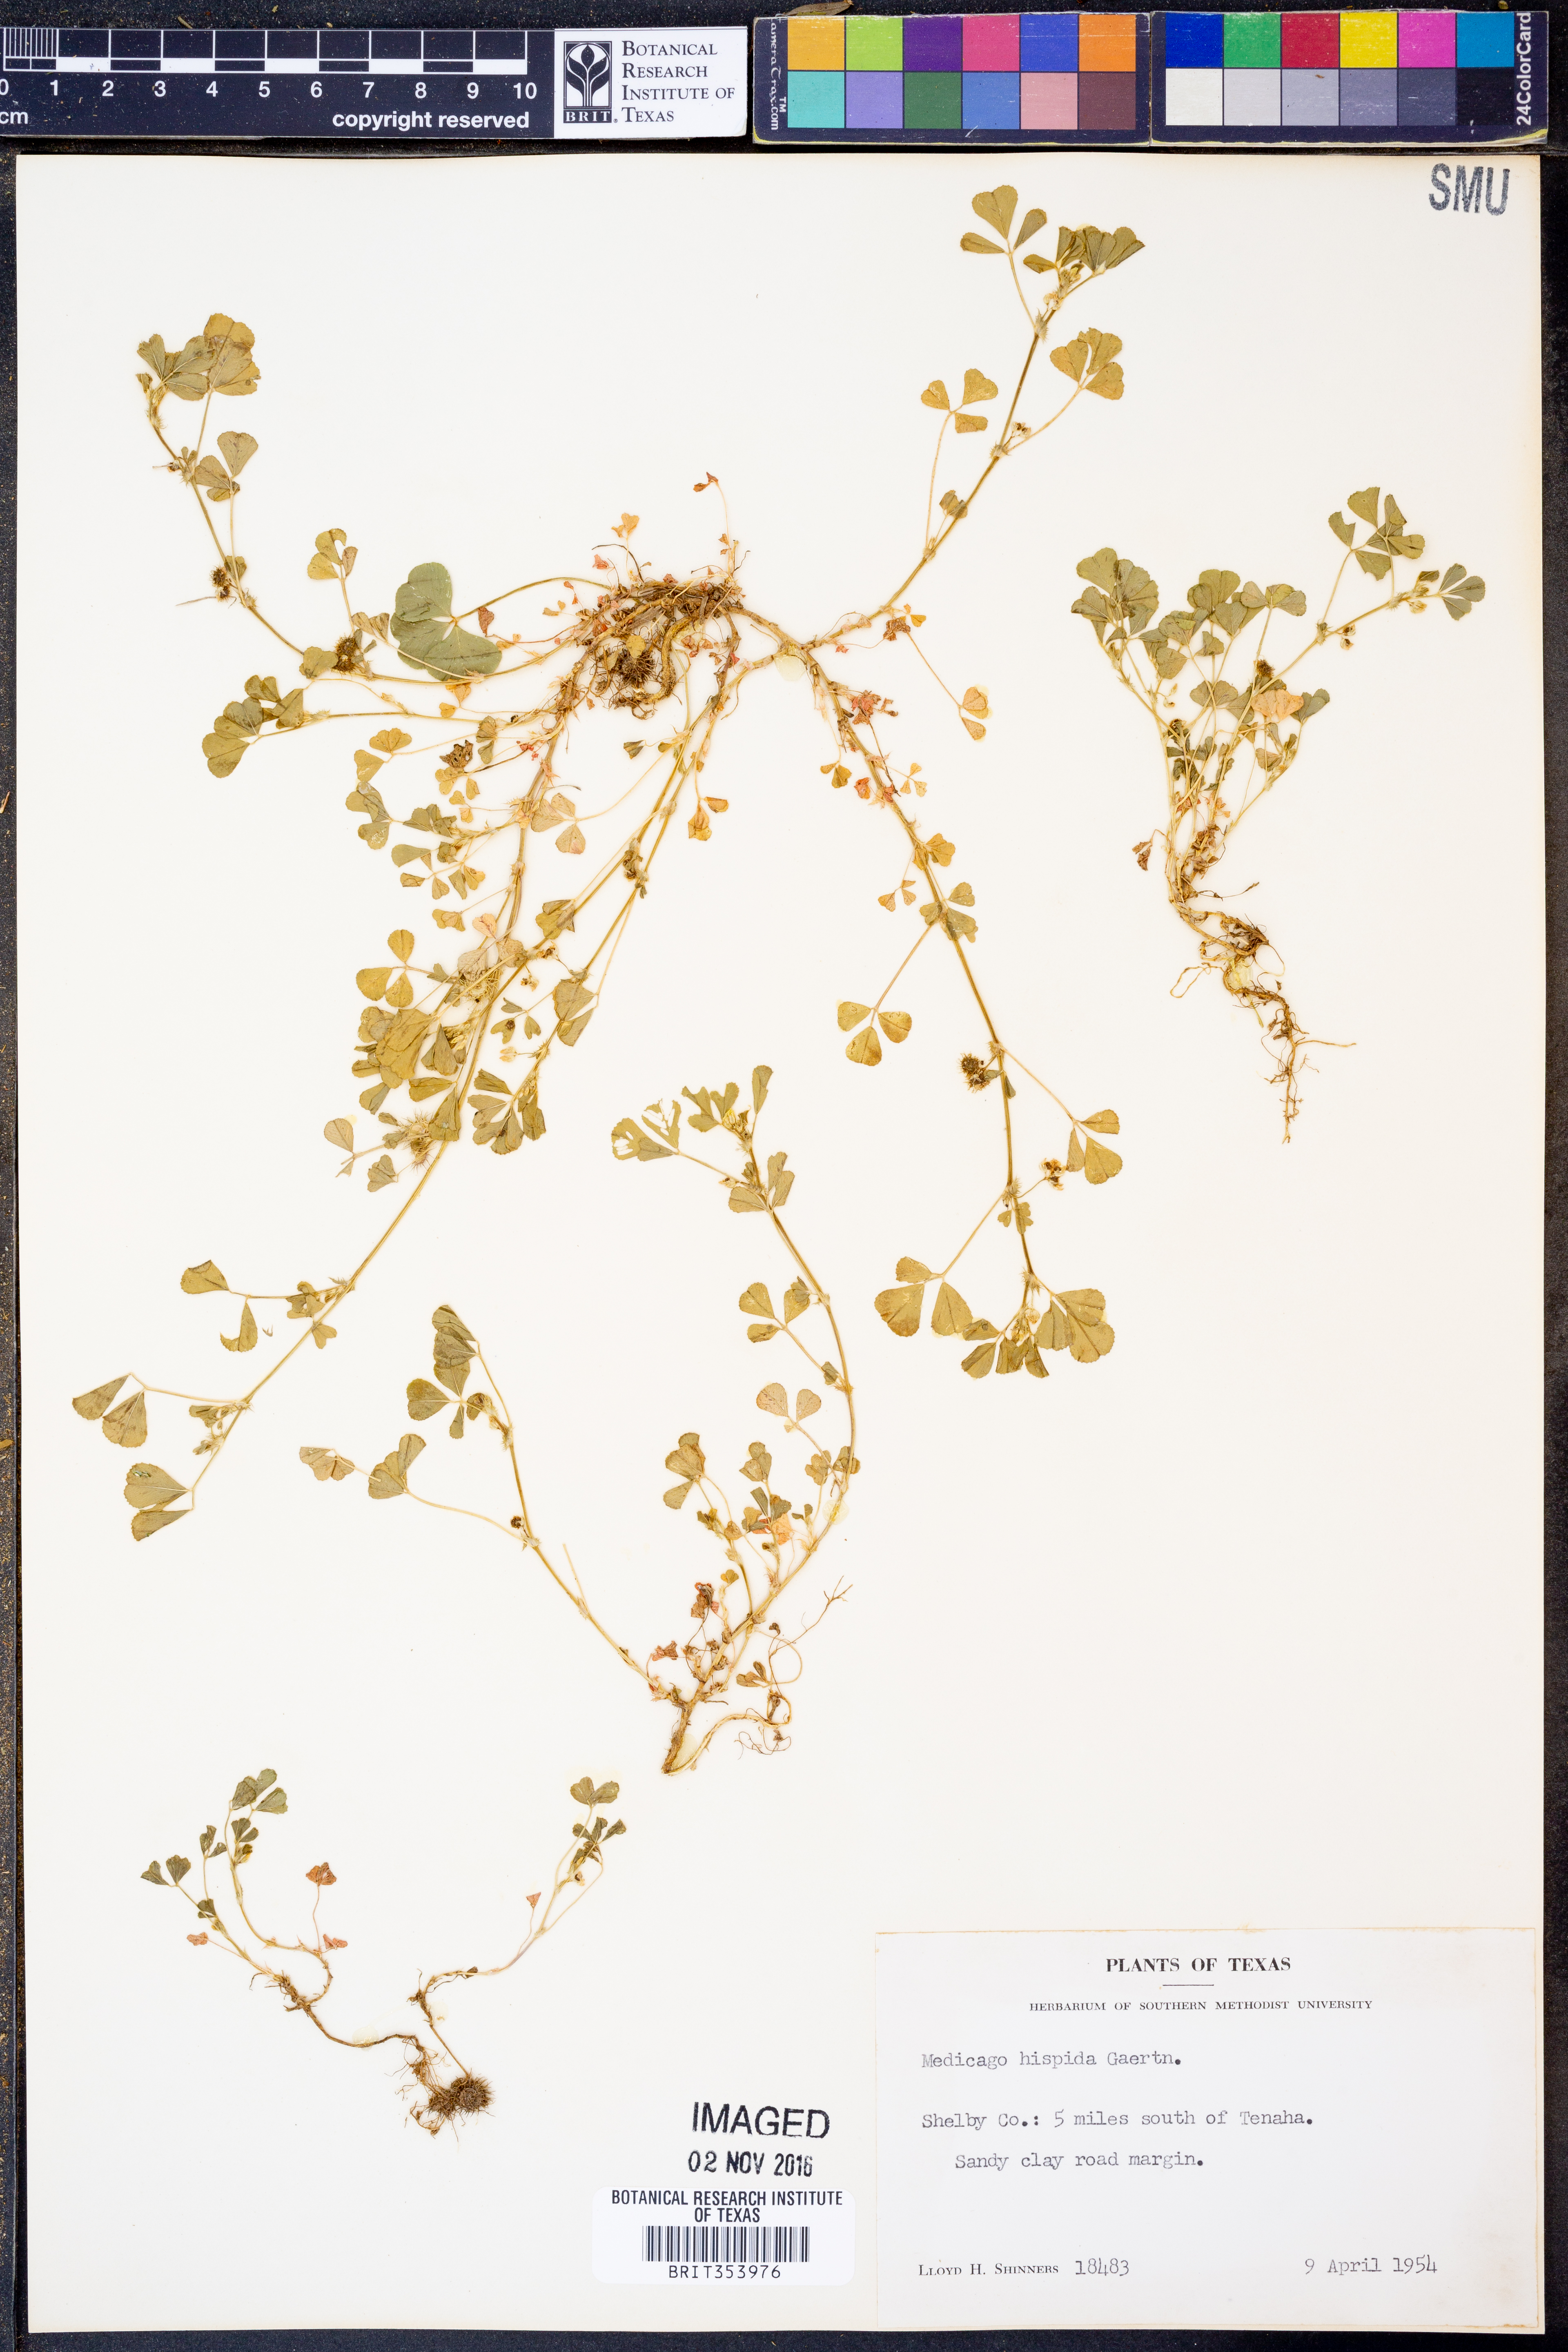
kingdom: Plantae
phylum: Tracheophyta
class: Magnoliopsida
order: Fabales
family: Fabaceae
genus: Medicago
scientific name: Medicago polymorpha
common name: Burclover
